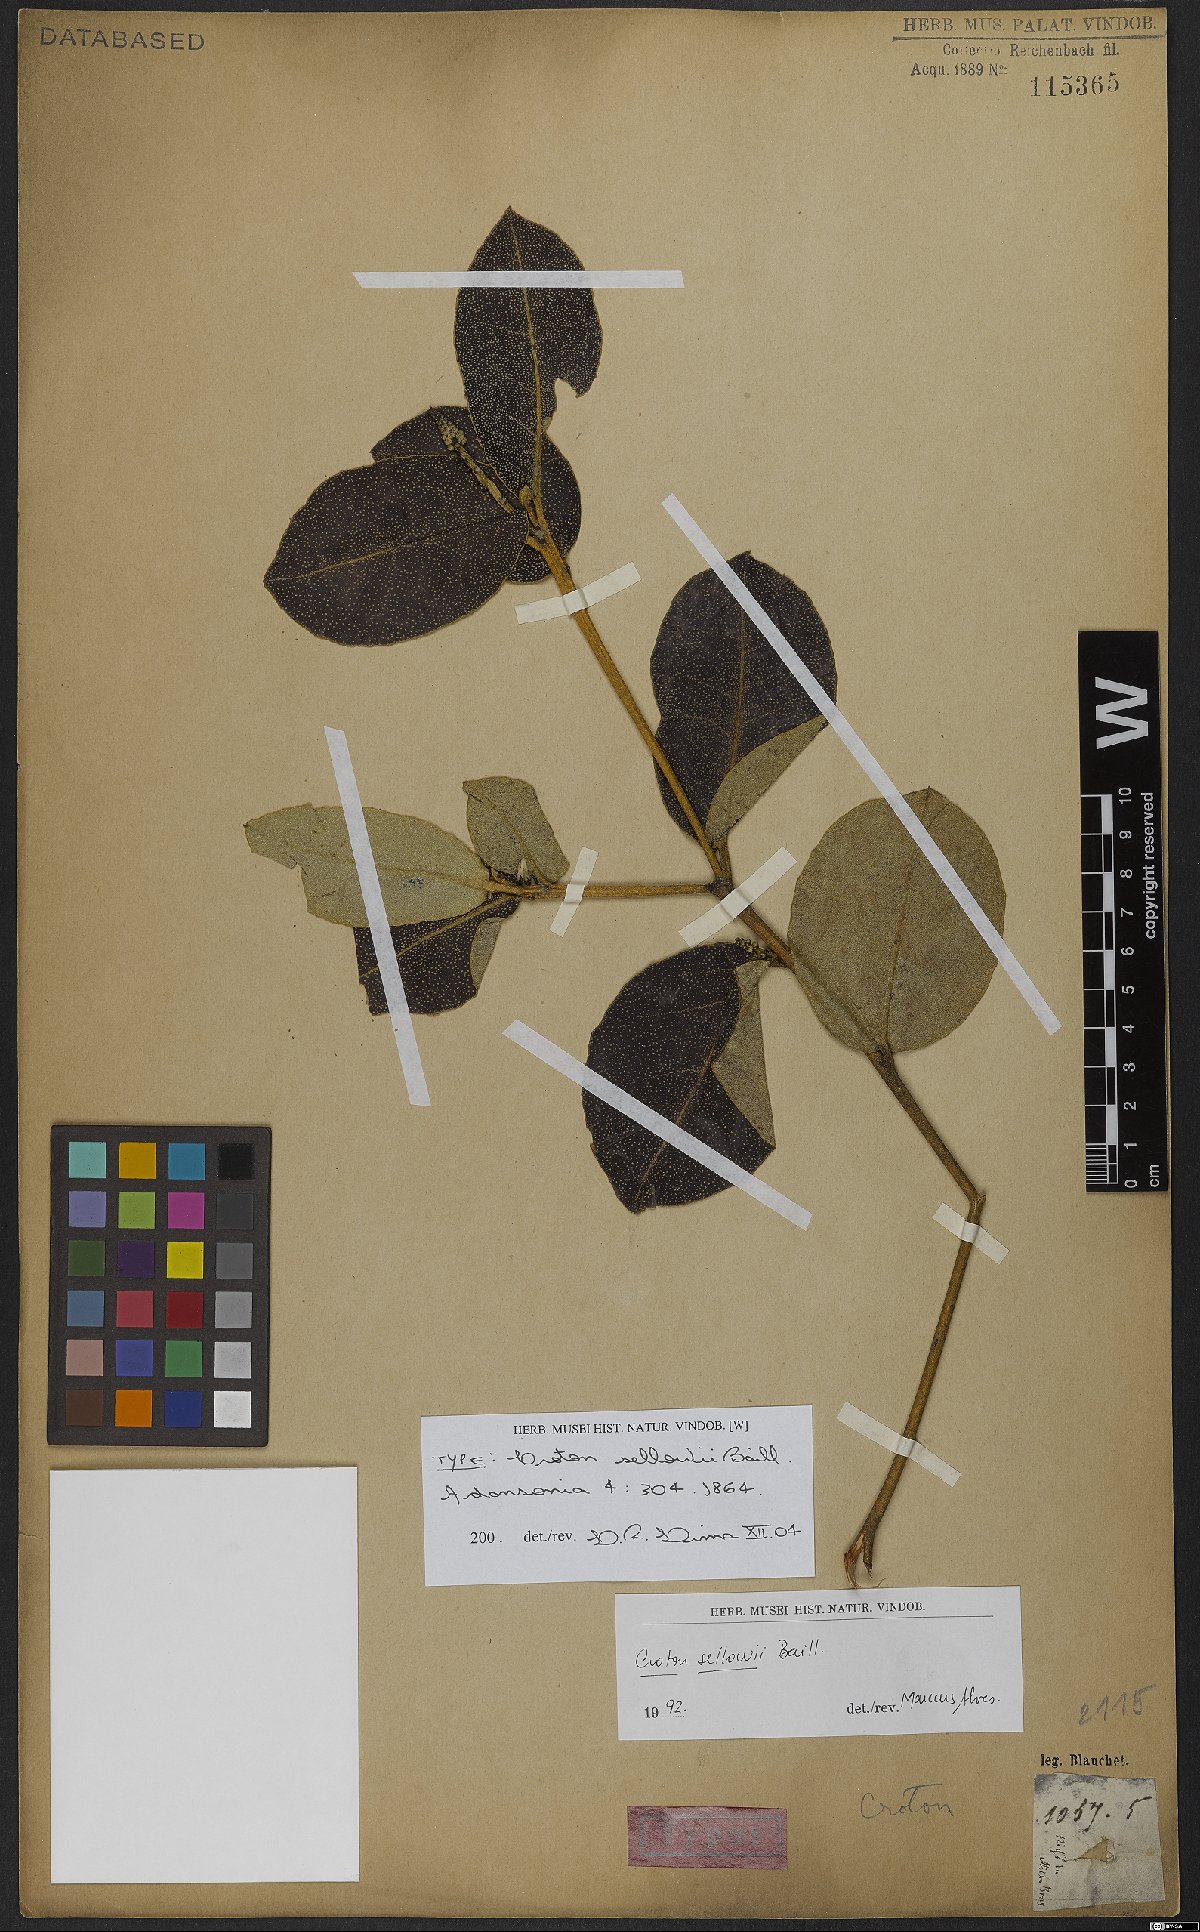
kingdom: Plantae
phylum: Tracheophyta
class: Magnoliopsida
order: Malpighiales
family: Euphorbiaceae
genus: Croton
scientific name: Croton sellowii
